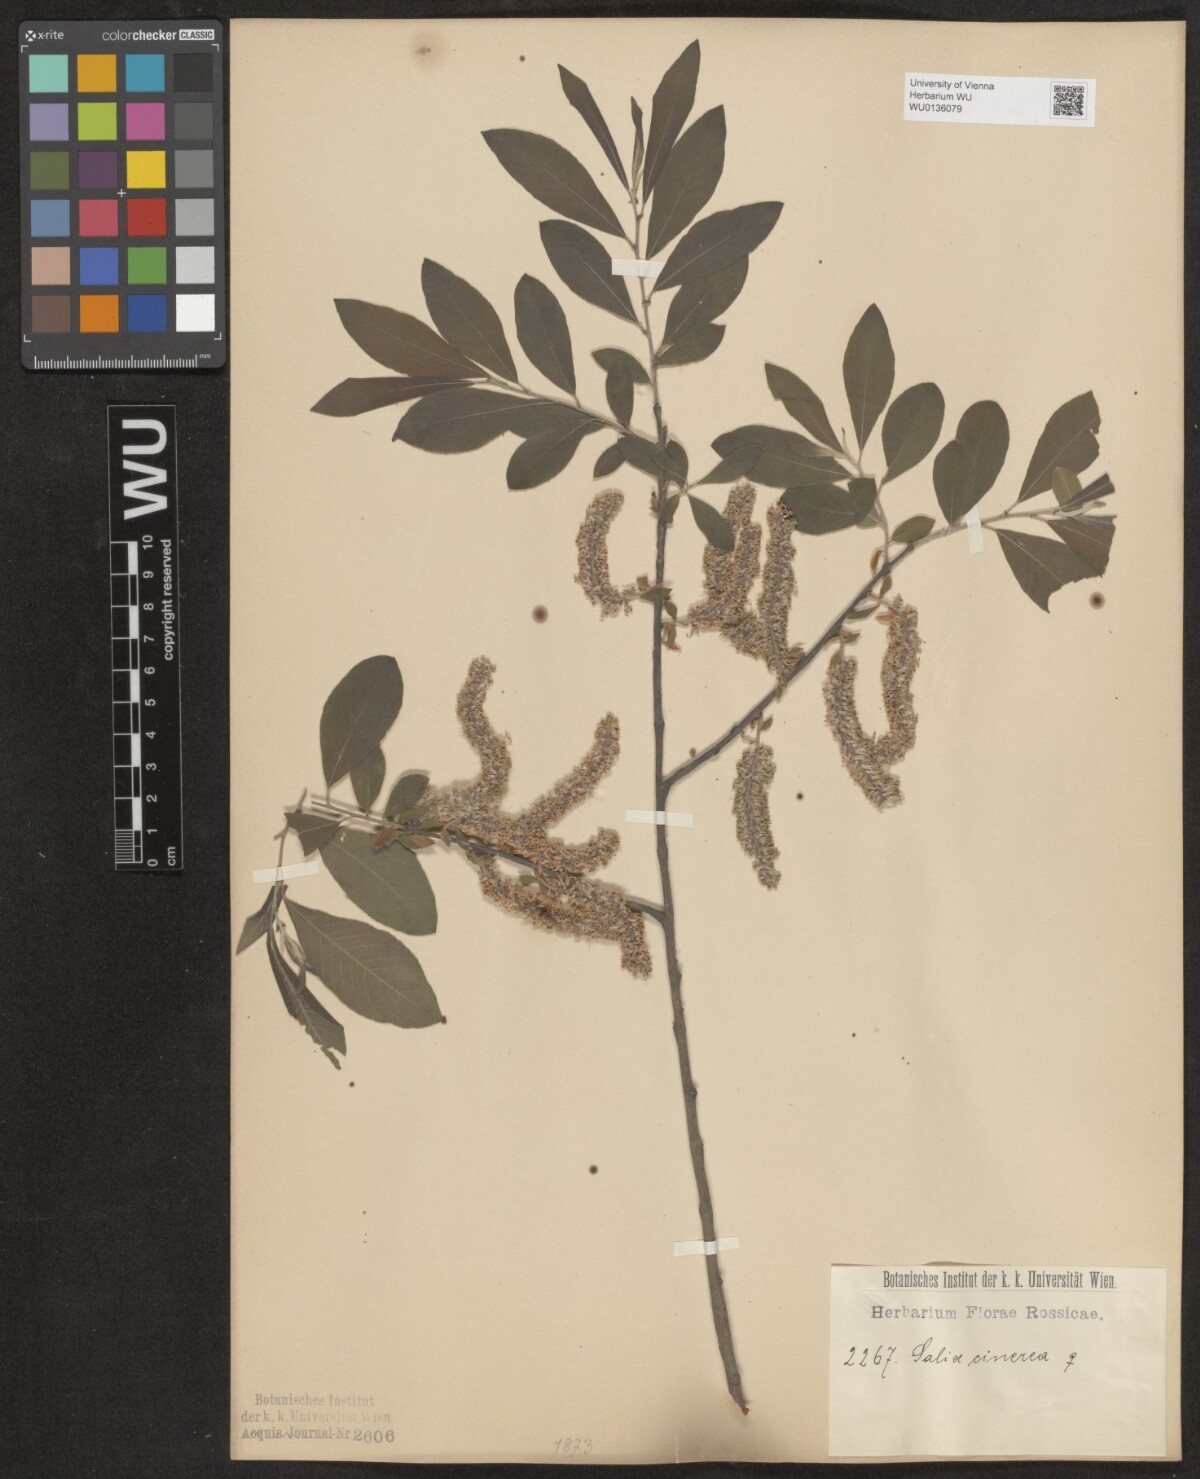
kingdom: Plantae
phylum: Tracheophyta
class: Magnoliopsida
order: Malpighiales
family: Salicaceae
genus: Salix
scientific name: Salix cinerea
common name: Common sallow
